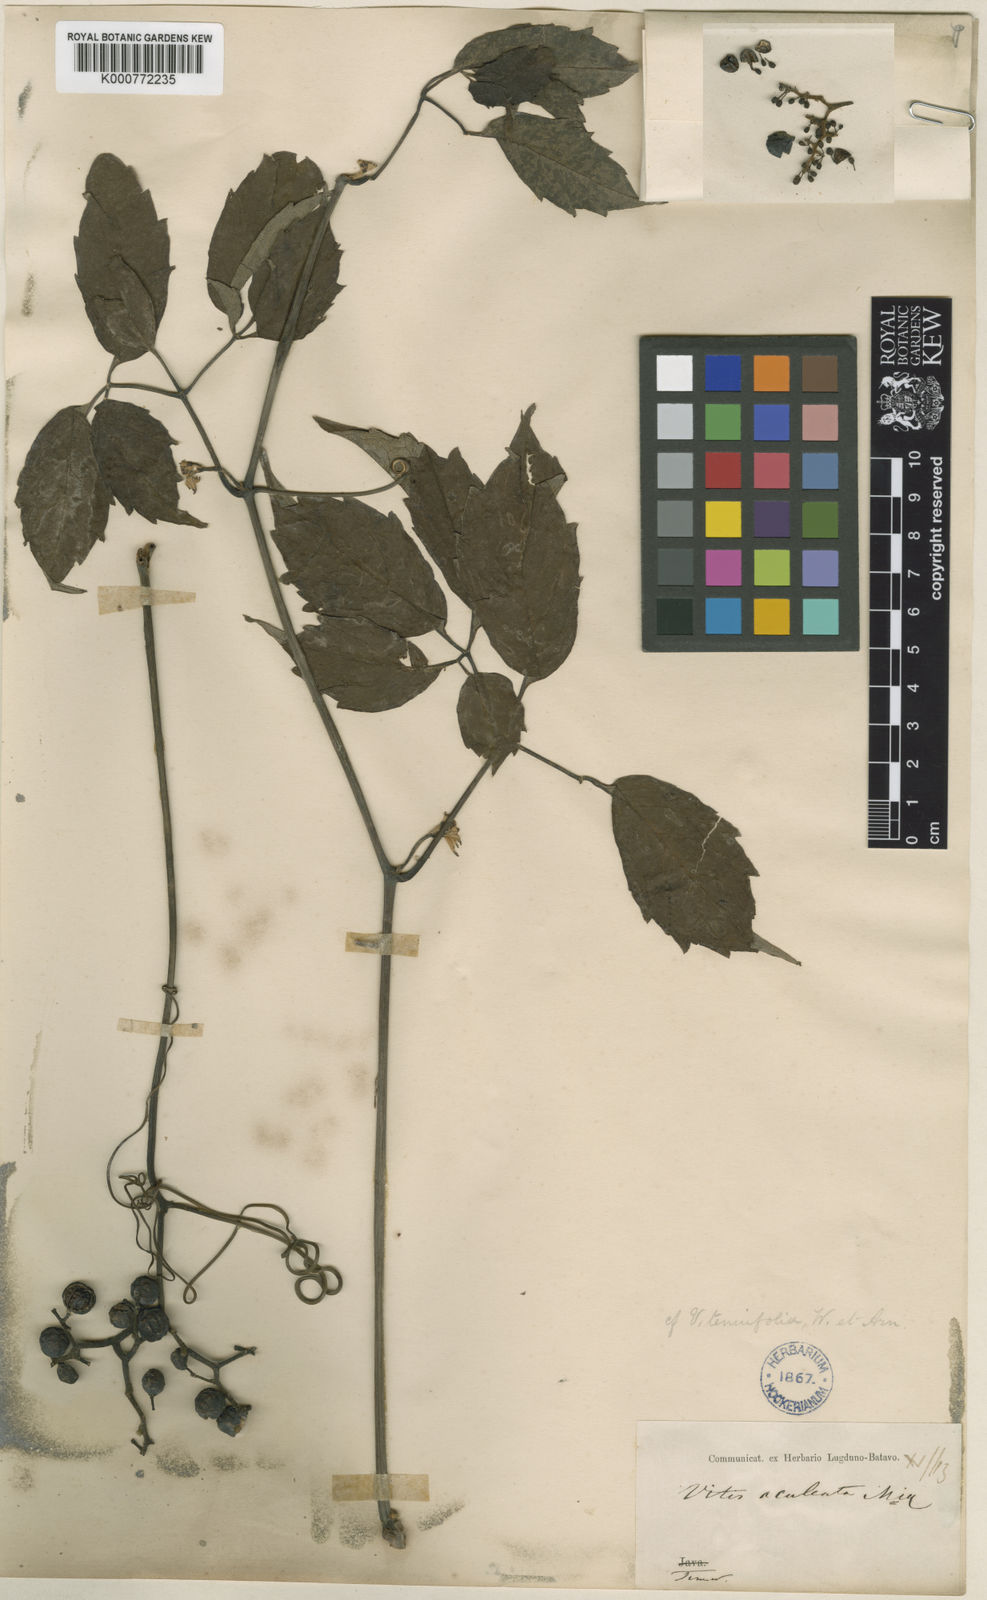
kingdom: Plantae
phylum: Tracheophyta
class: Magnoliopsida
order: Vitales
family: Vitaceae
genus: Ampelocissus
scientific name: Ampelocissus aculeata
